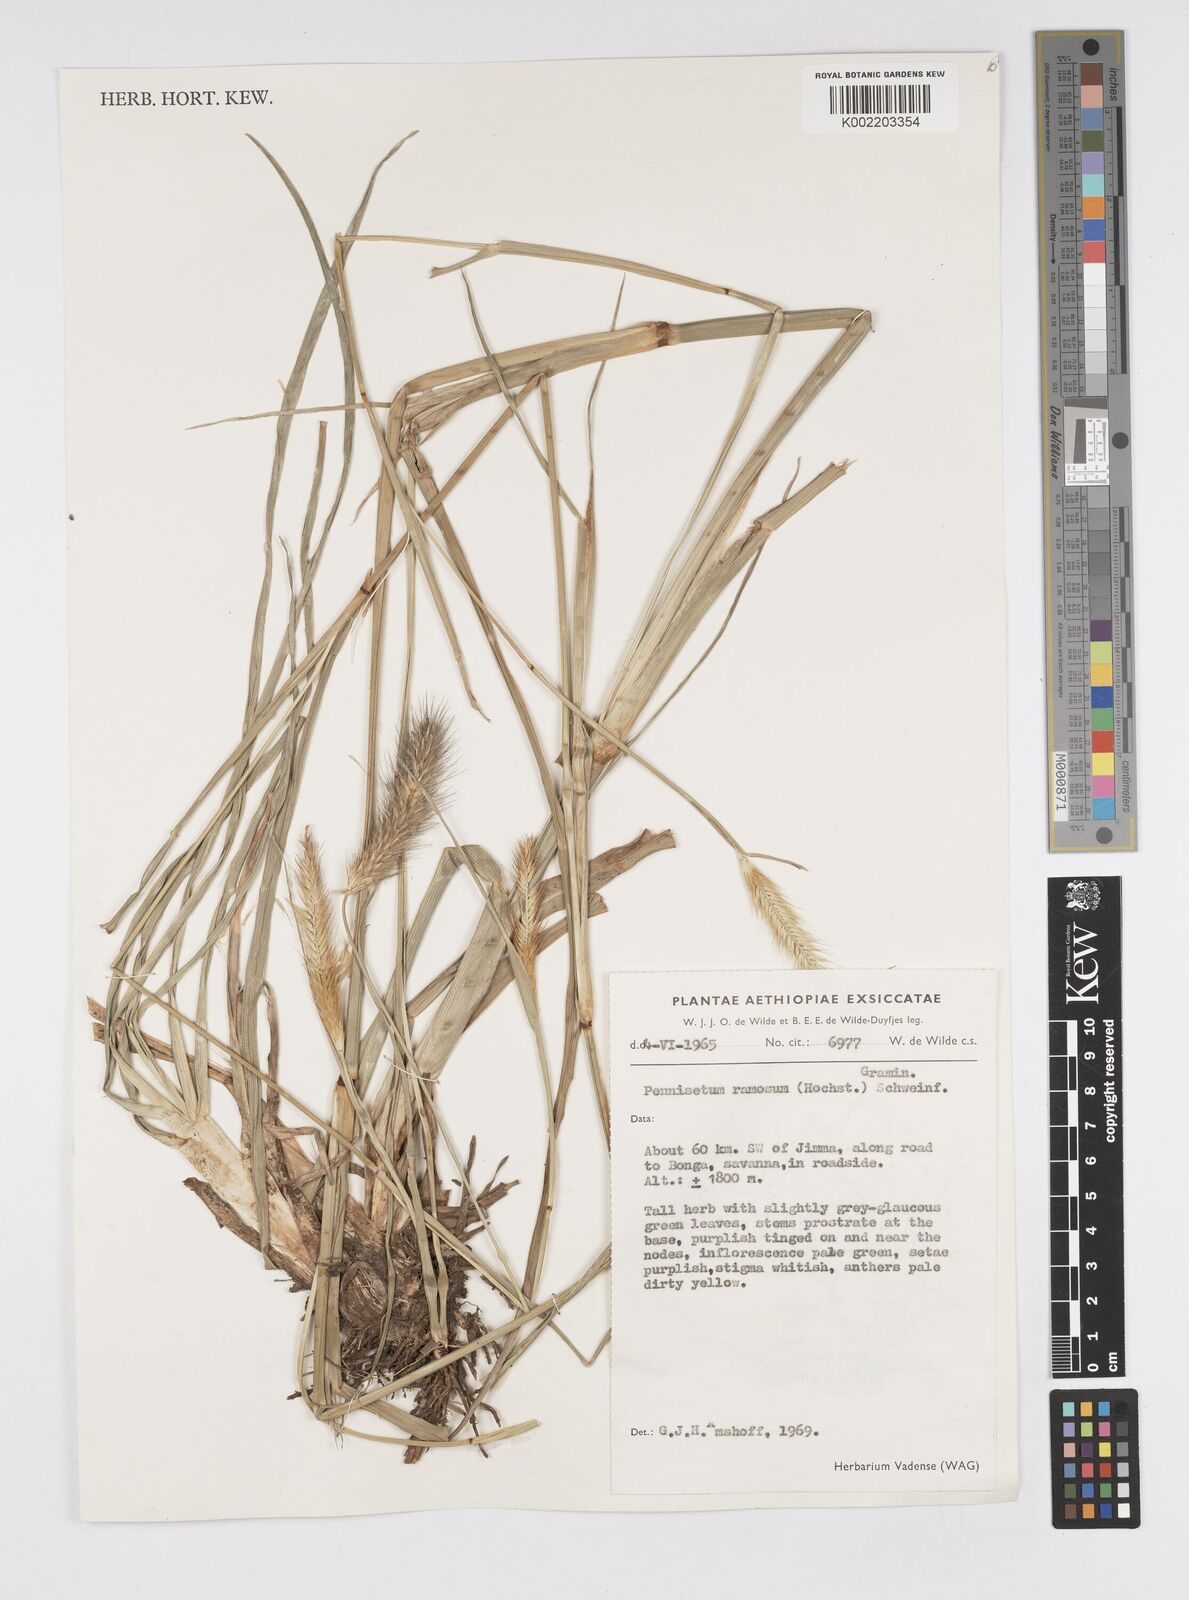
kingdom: Plantae
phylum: Tracheophyta
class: Liliopsida
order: Poales
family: Poaceae
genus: Cenchrus
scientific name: Cenchrus ramosus
